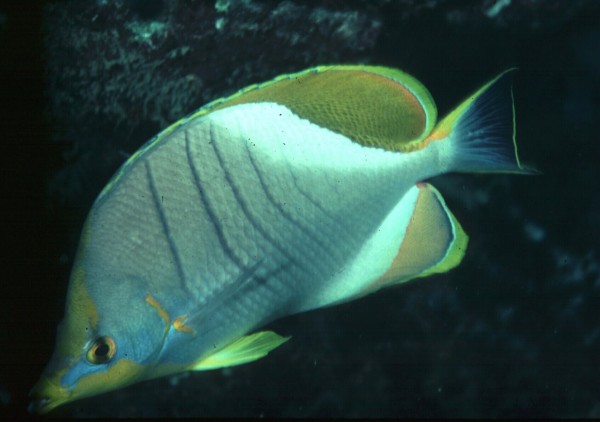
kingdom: Animalia
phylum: Chordata
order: Perciformes
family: Chaetodontidae
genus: Chaetodon
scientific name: Chaetodon xanthocephalus
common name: Yellowhead butterflyfish
